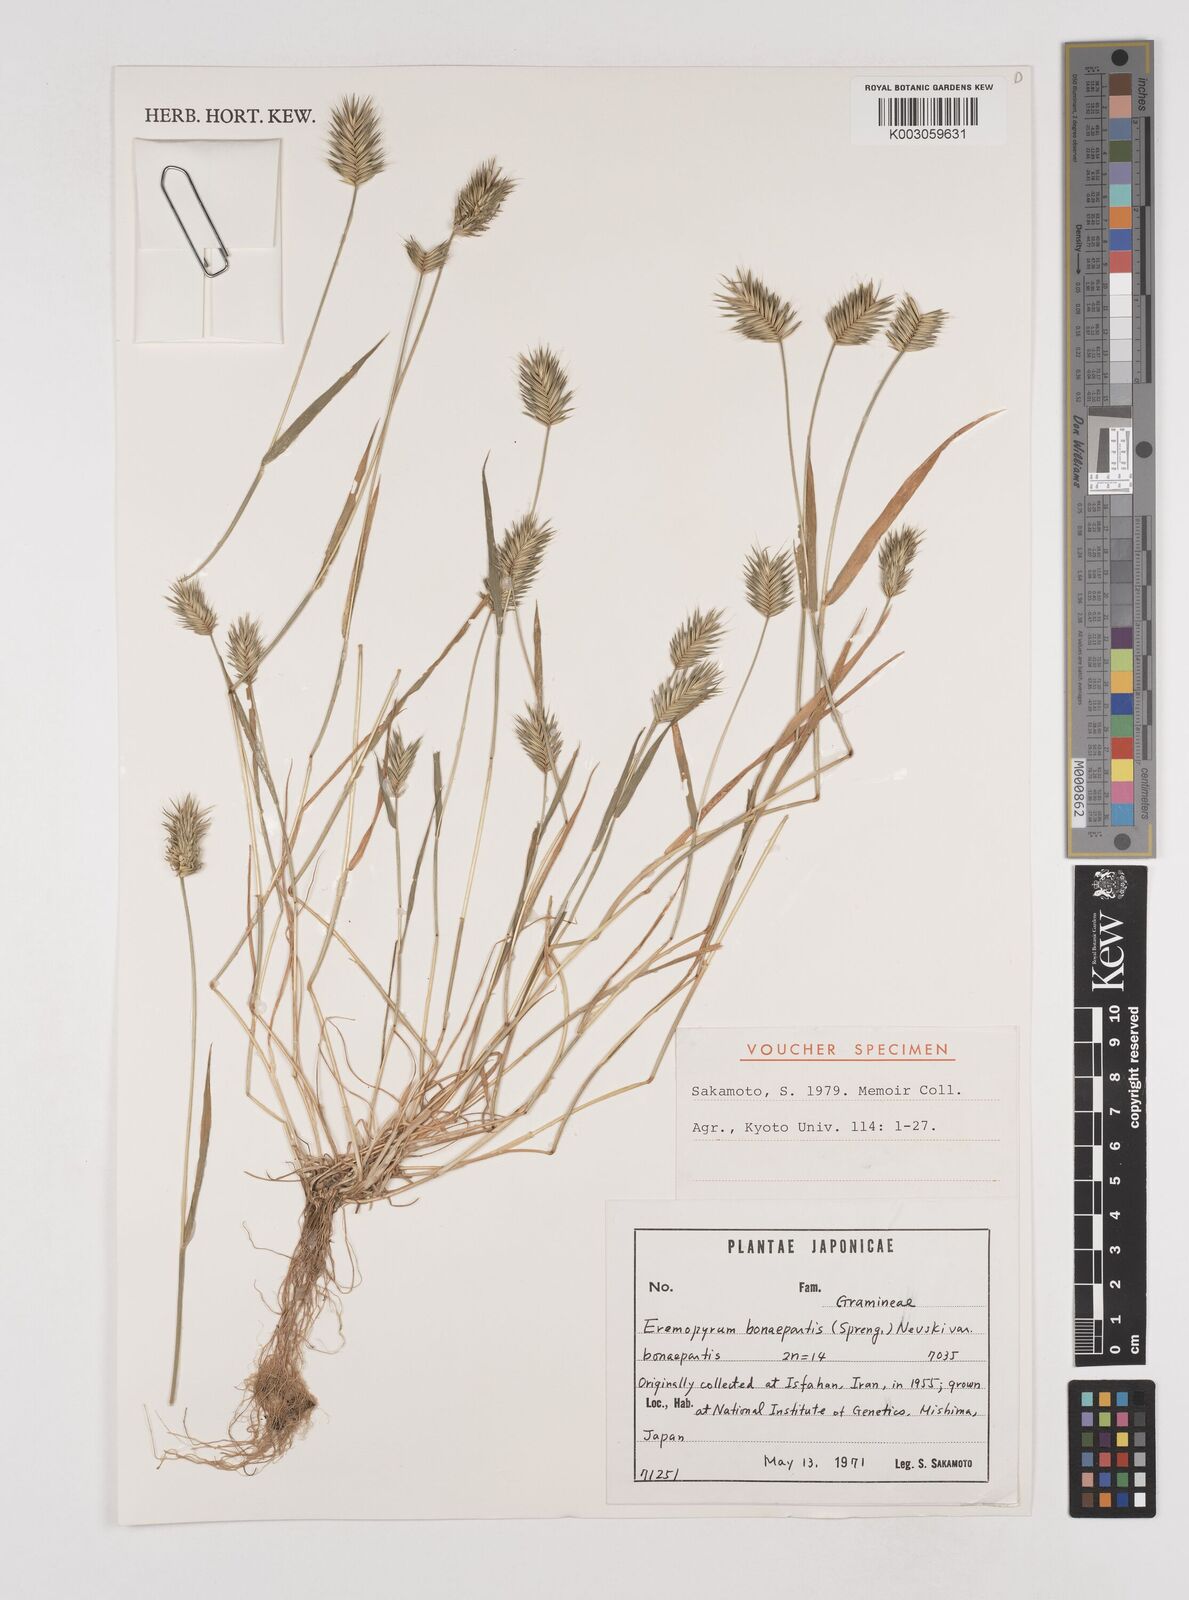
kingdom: Plantae
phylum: Tracheophyta
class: Liliopsida
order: Poales
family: Poaceae
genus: Eremopyrum
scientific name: Eremopyrum bonaepartis
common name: Tapertip false wheatgrass
